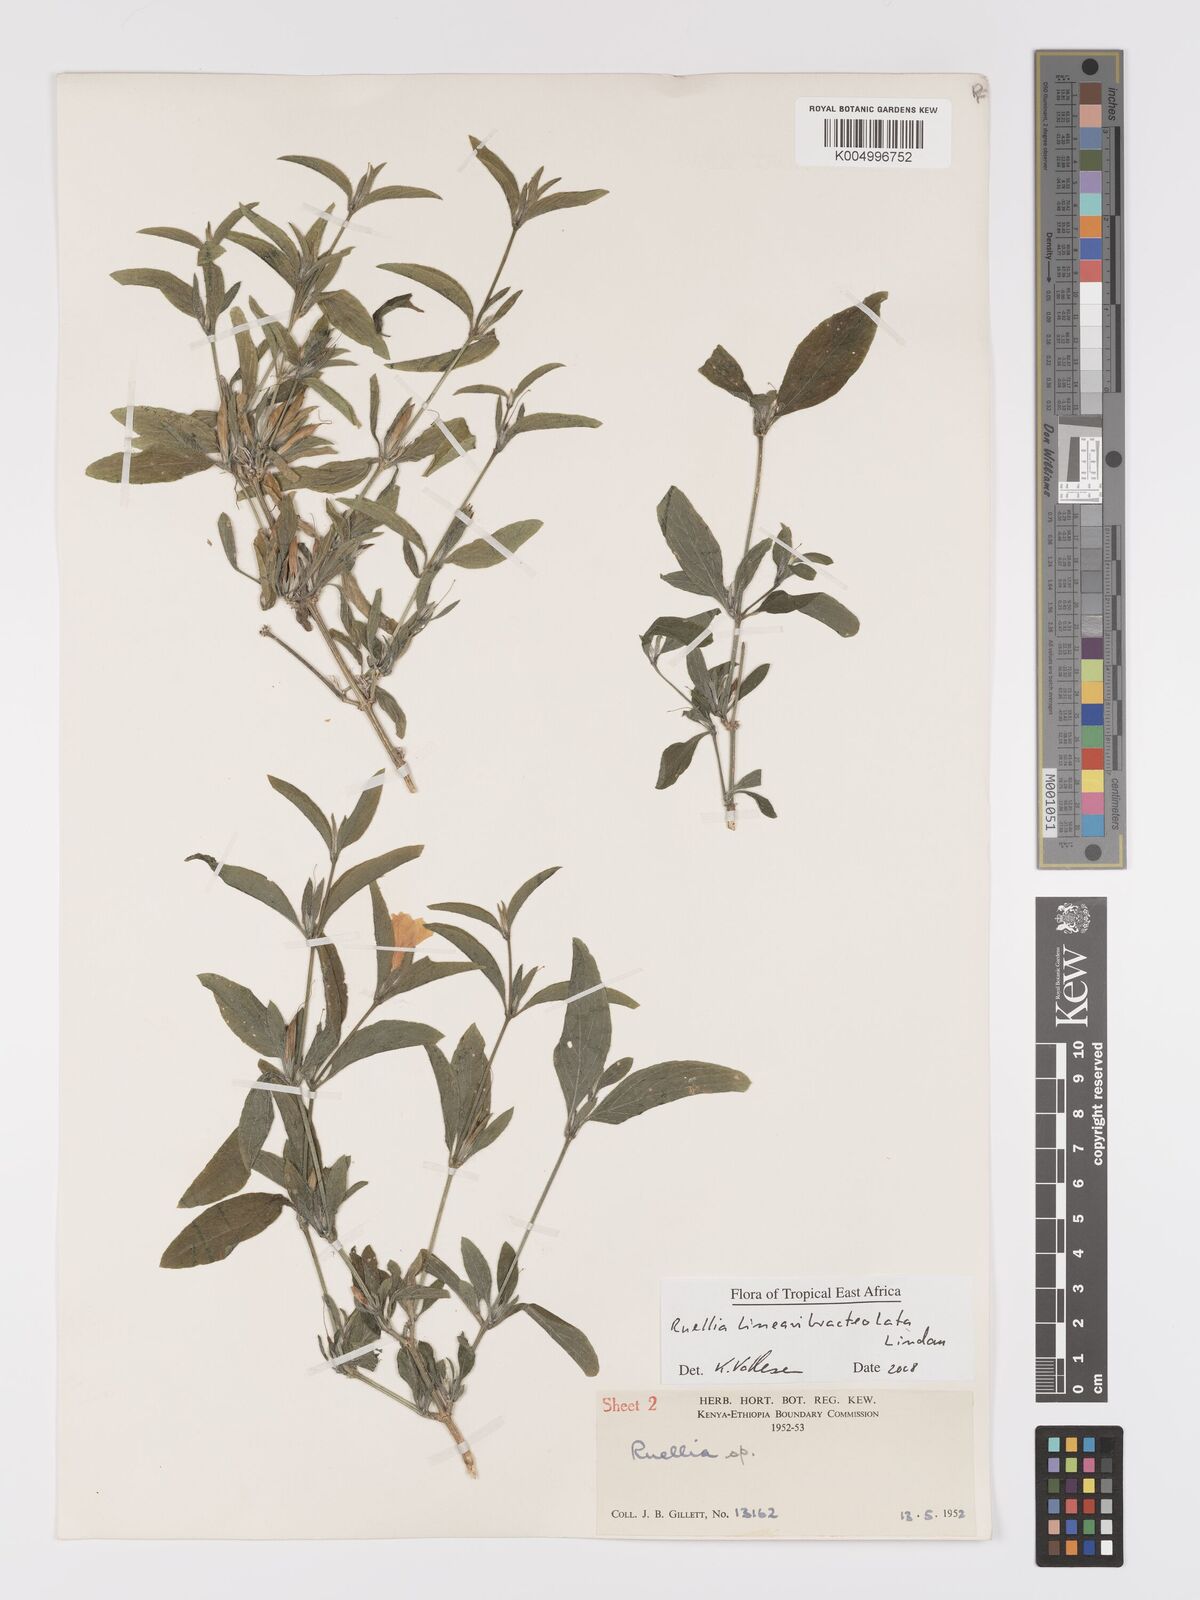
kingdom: Plantae
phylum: Tracheophyta
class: Magnoliopsida
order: Lamiales
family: Acanthaceae
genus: Ruellia
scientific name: Ruellia linearibracteolata
